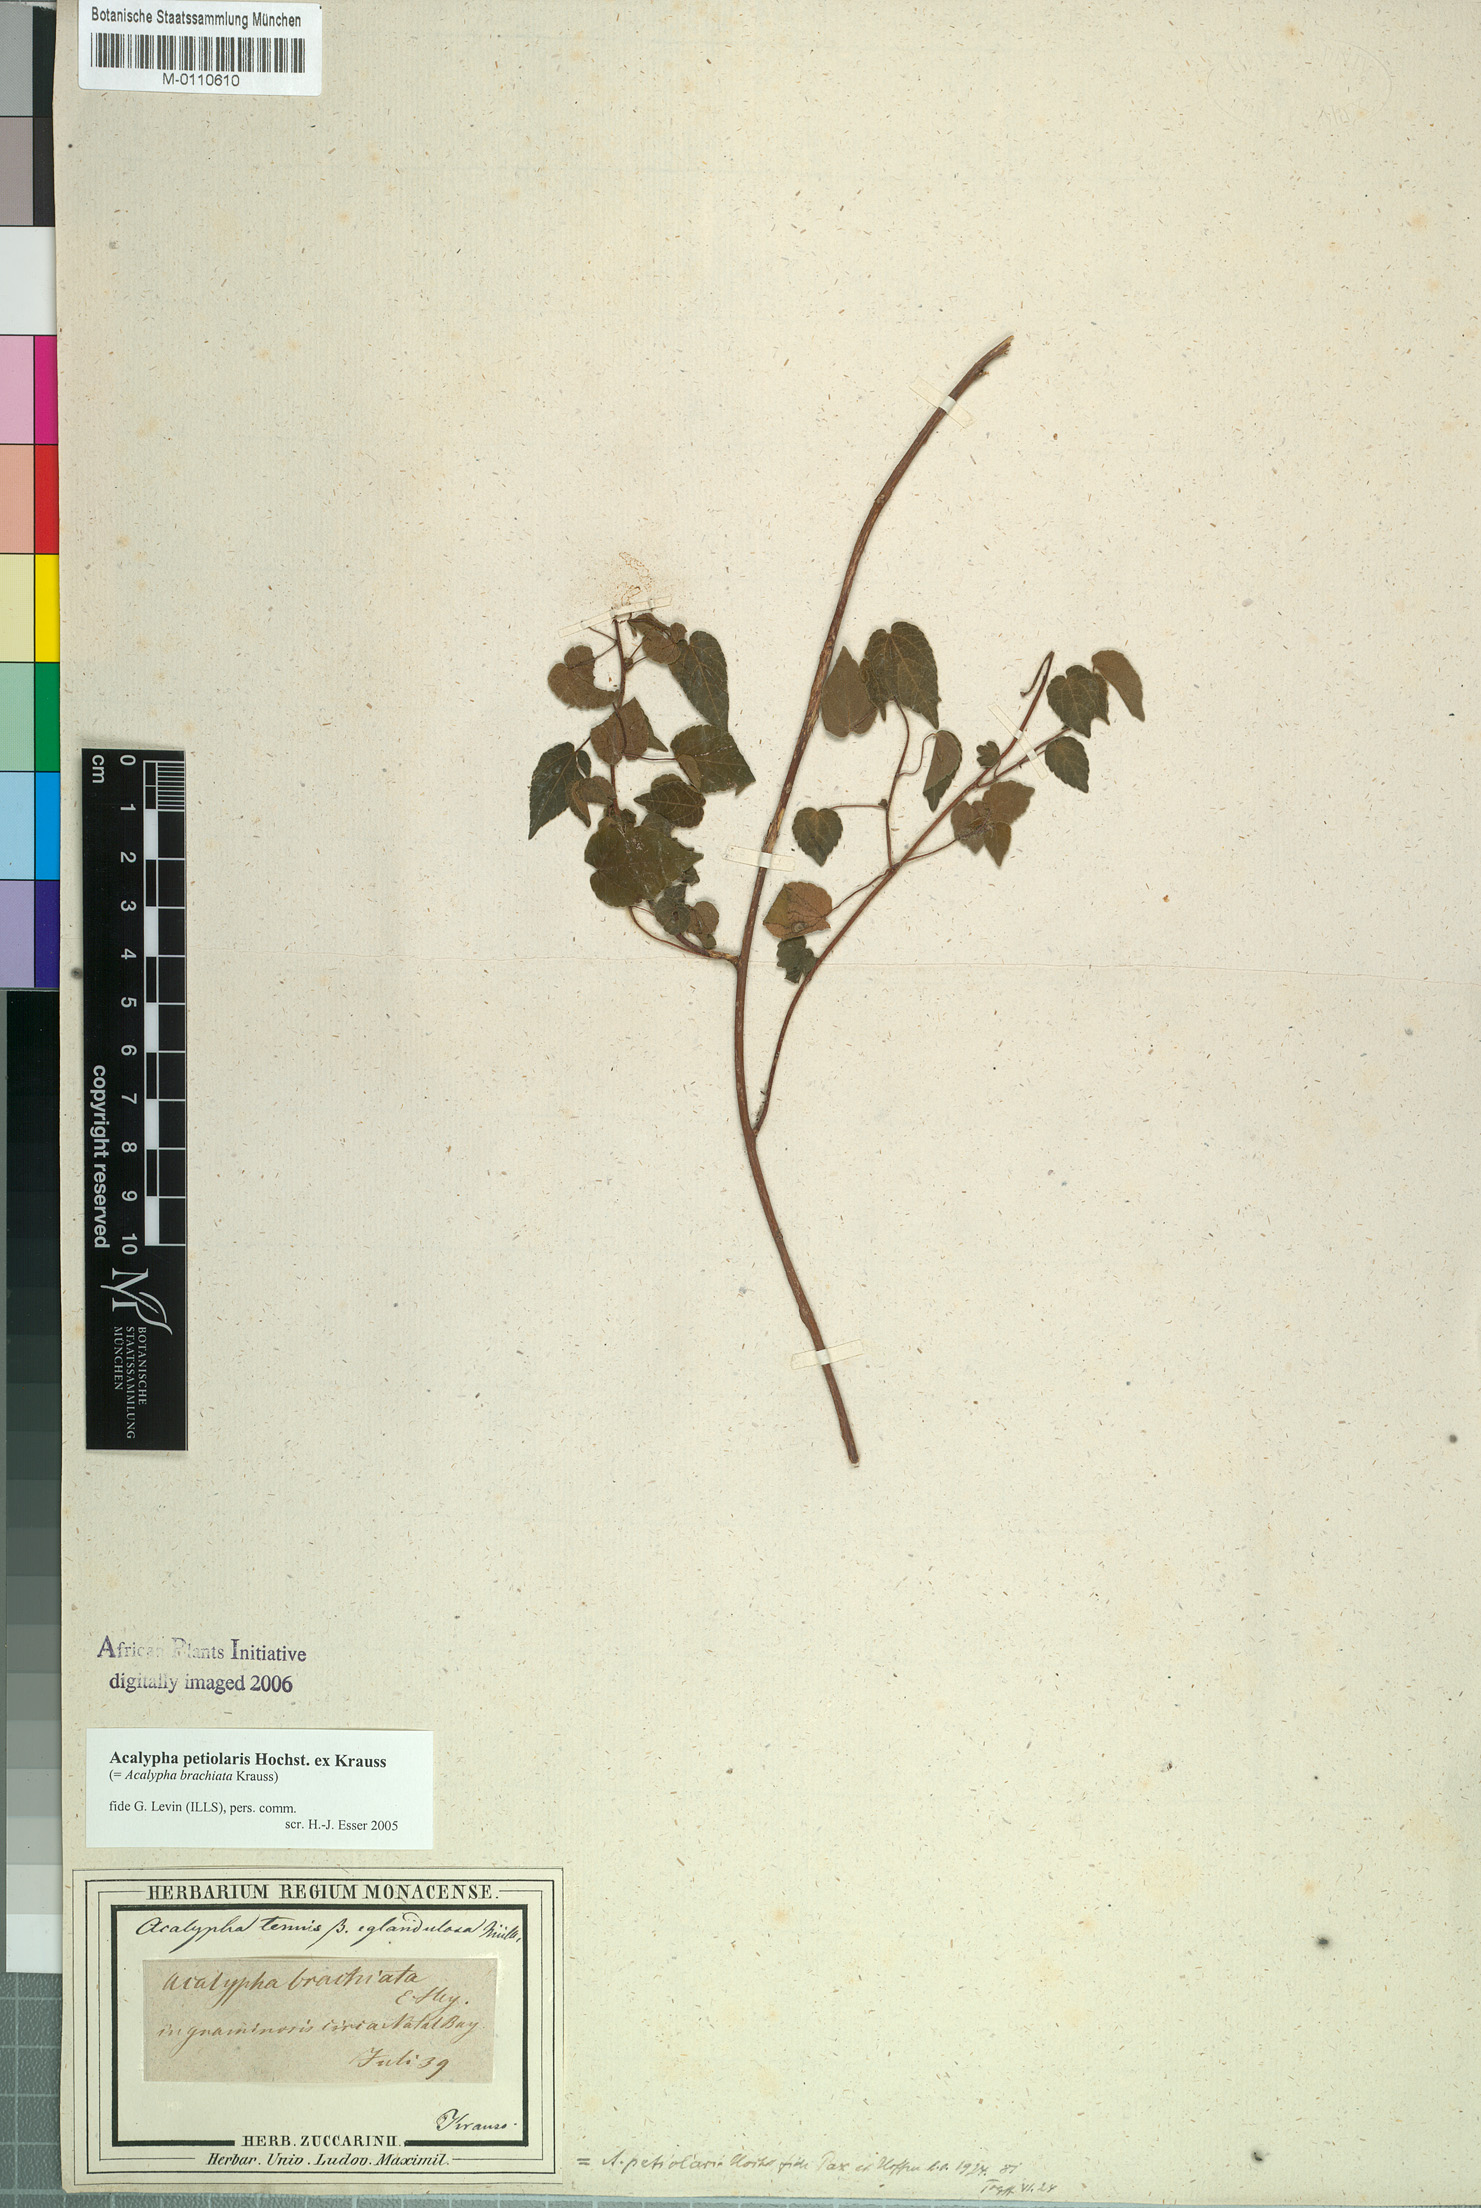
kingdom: Plantae
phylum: Tracheophyta
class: Magnoliopsida
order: Malpighiales
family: Euphorbiaceae
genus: Acalypha
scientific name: Acalypha petiolaris
